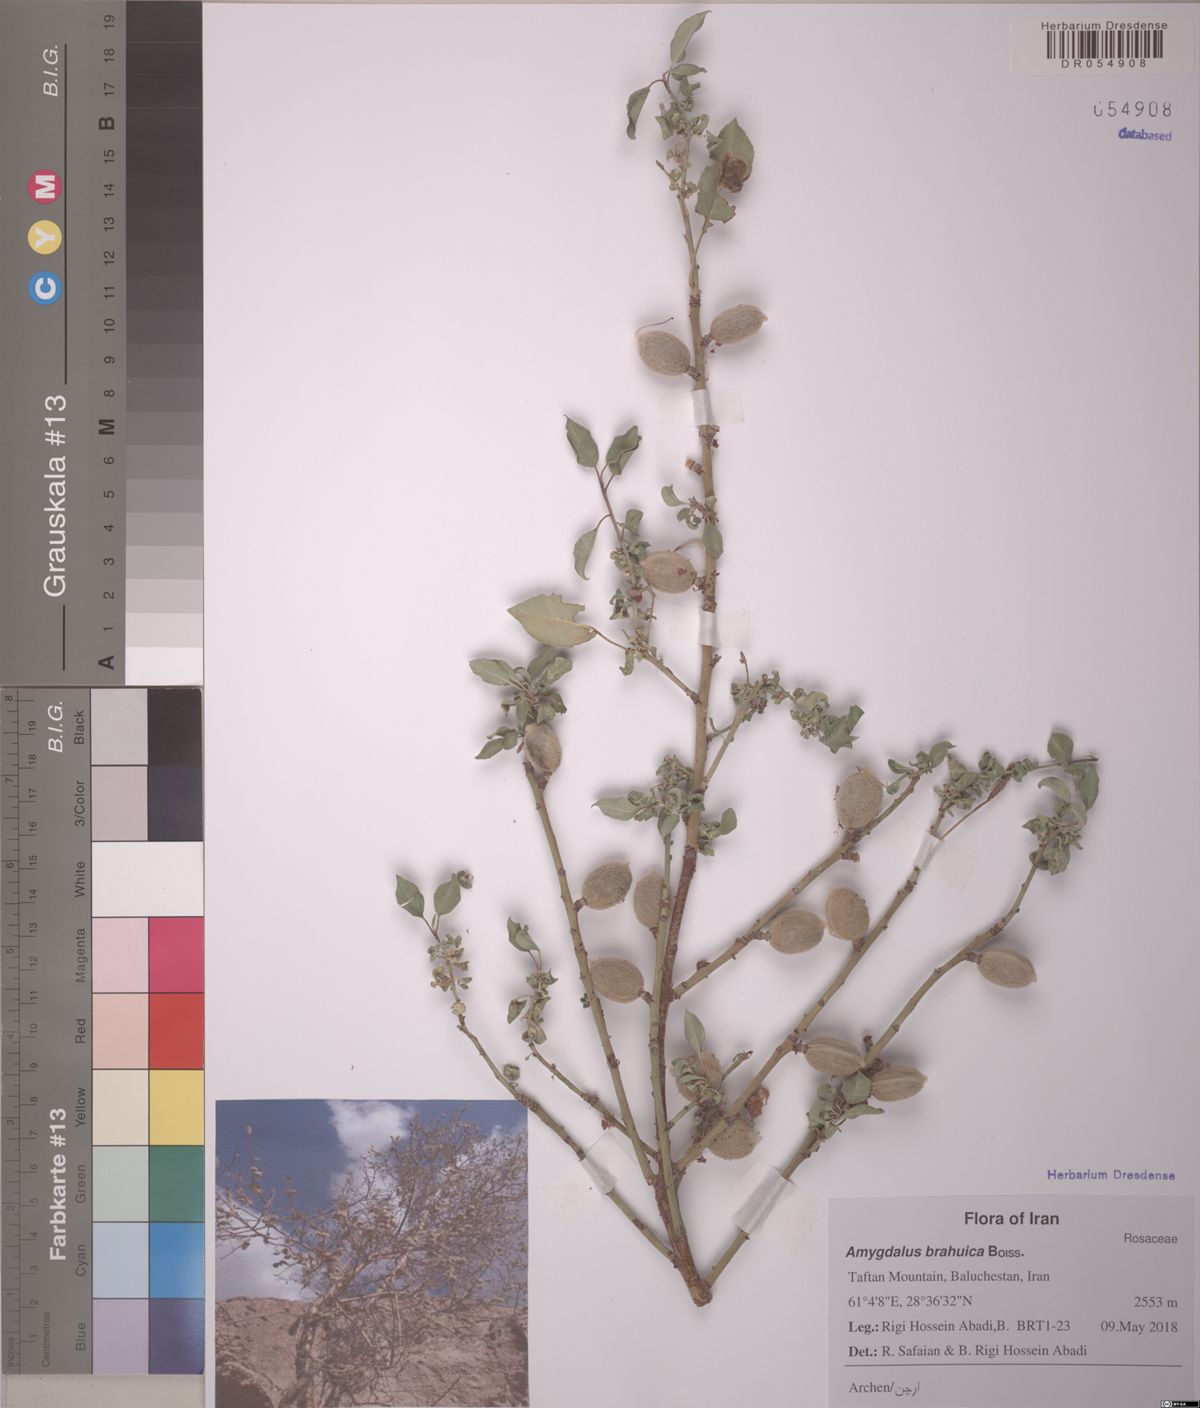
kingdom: Plantae
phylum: Tracheophyta
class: Magnoliopsida
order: Rosales
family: Rosaceae
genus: Prunus
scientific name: Prunus brahuica
